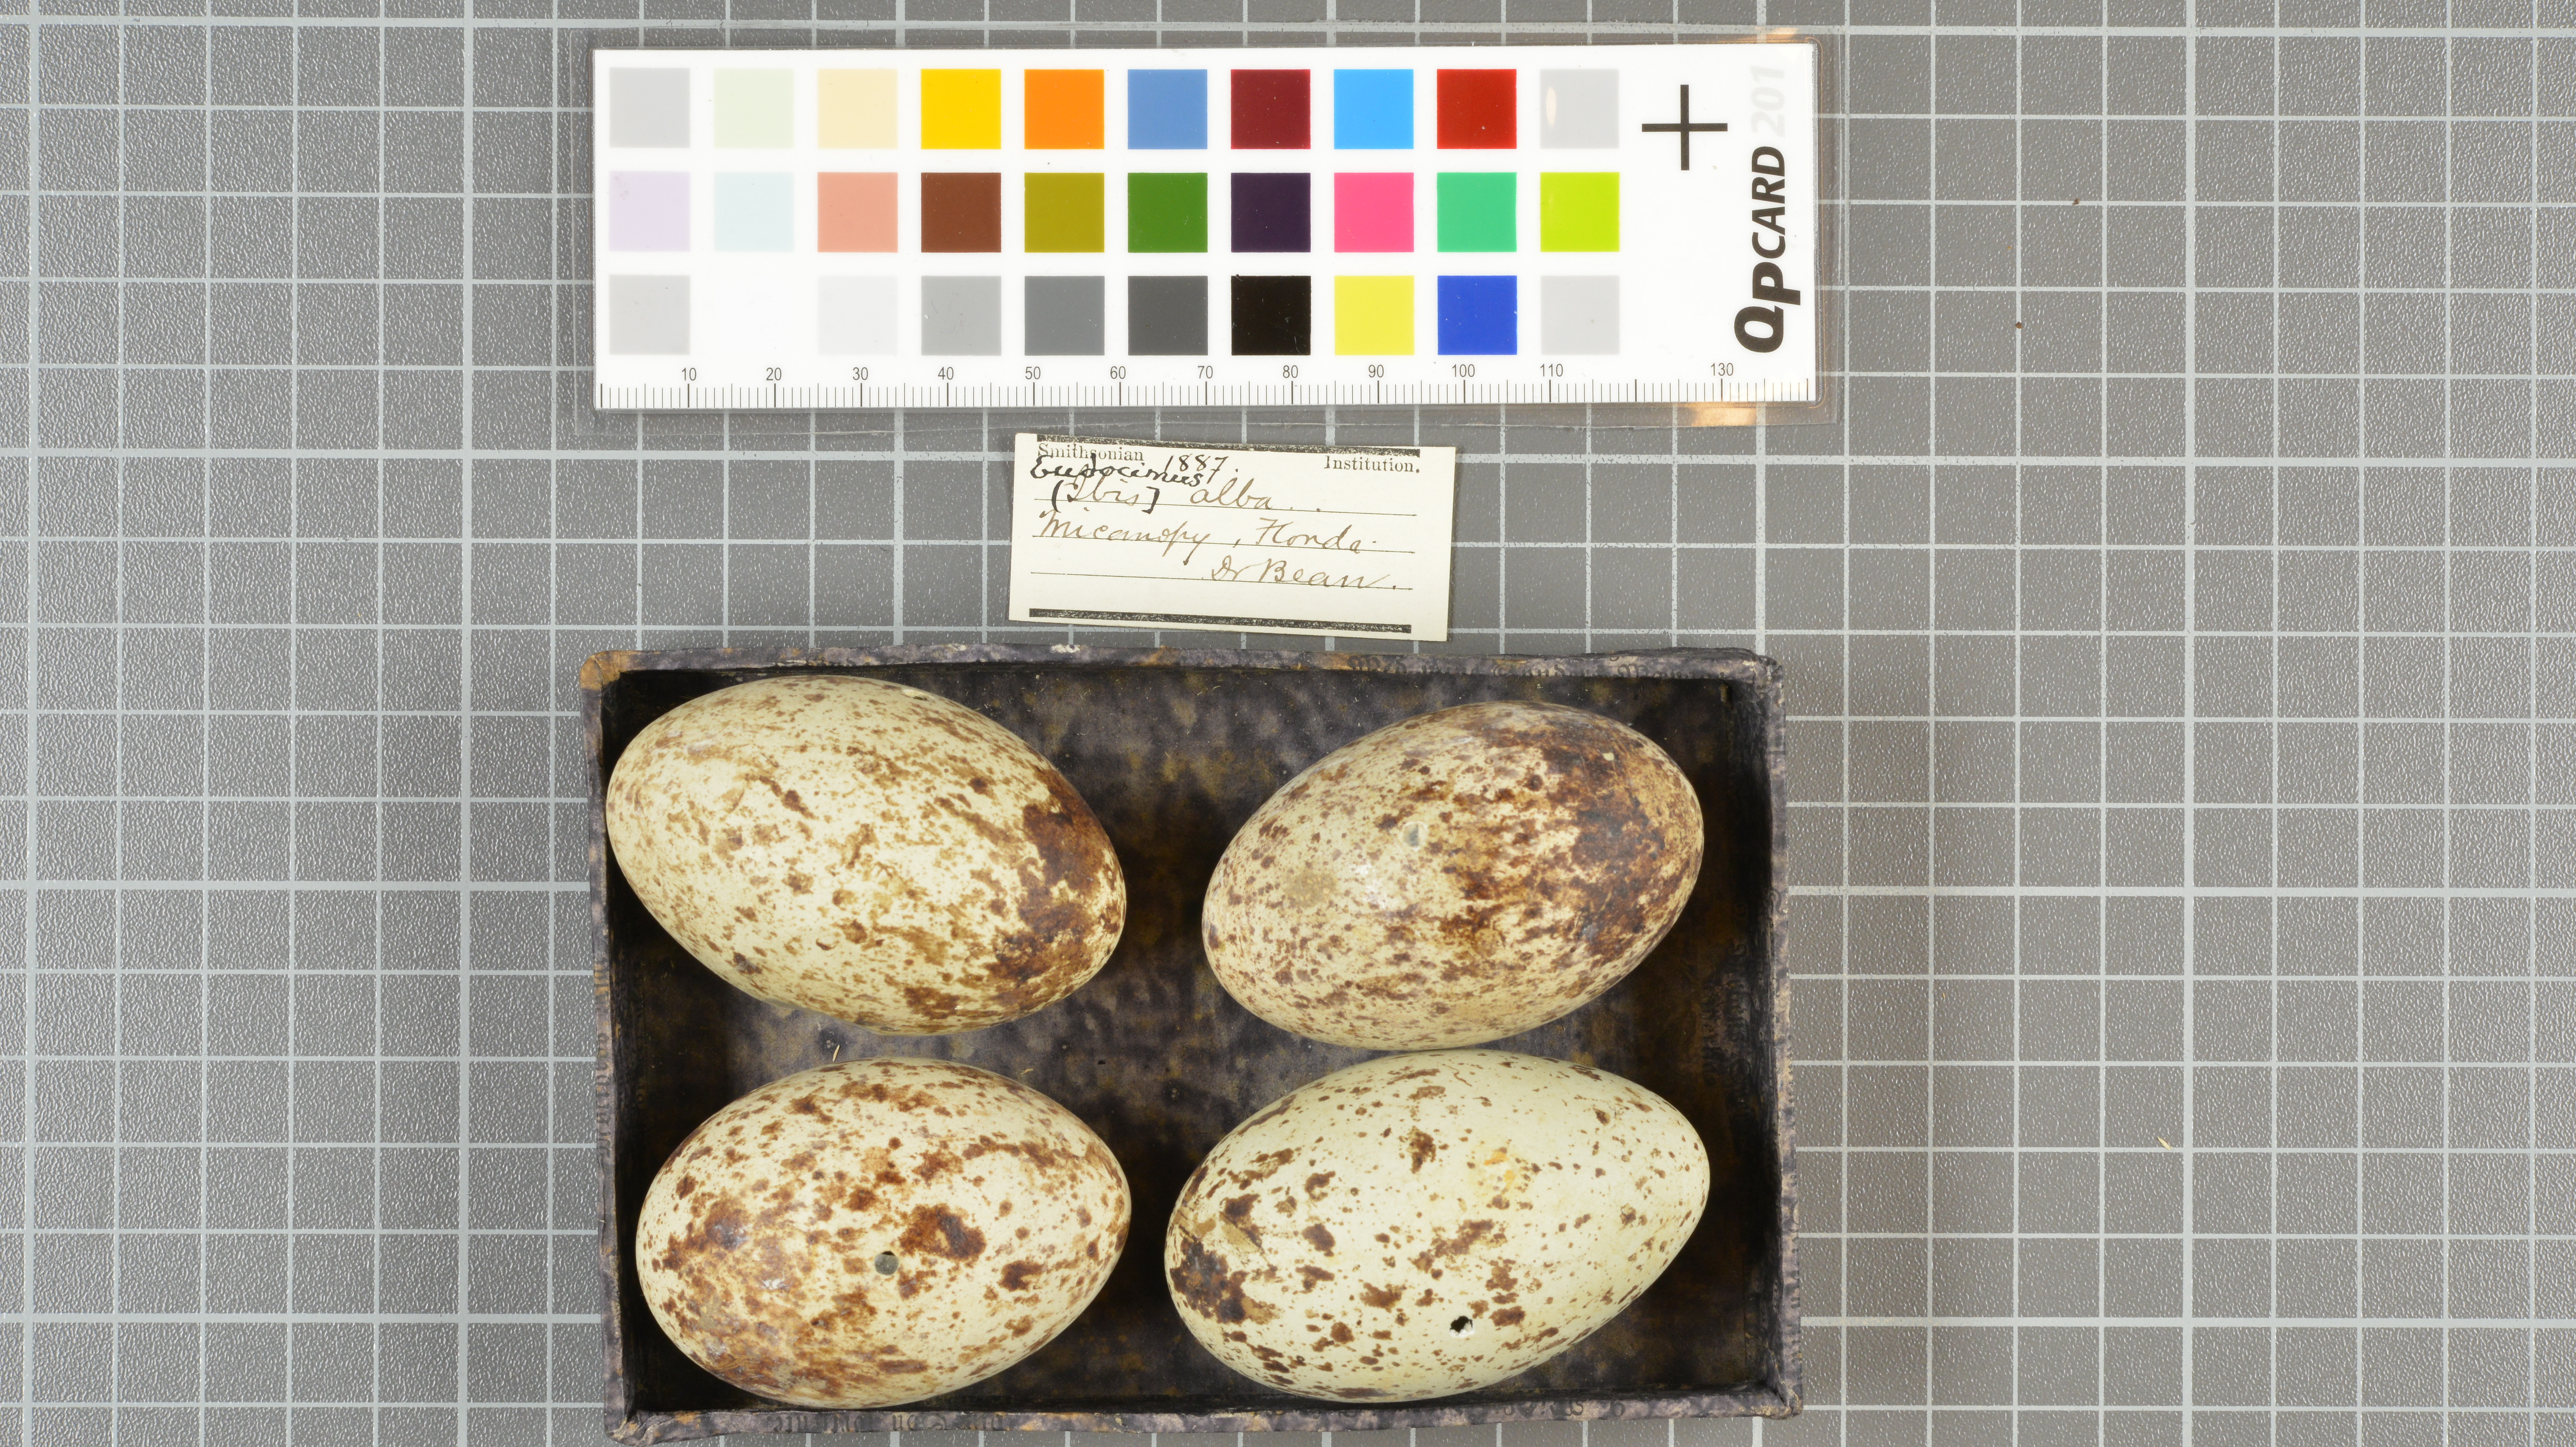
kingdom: Animalia
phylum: Chordata
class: Aves
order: Pelecaniformes
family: Threskiornithidae
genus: Eudocimus
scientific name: Eudocimus albus
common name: White ibis
